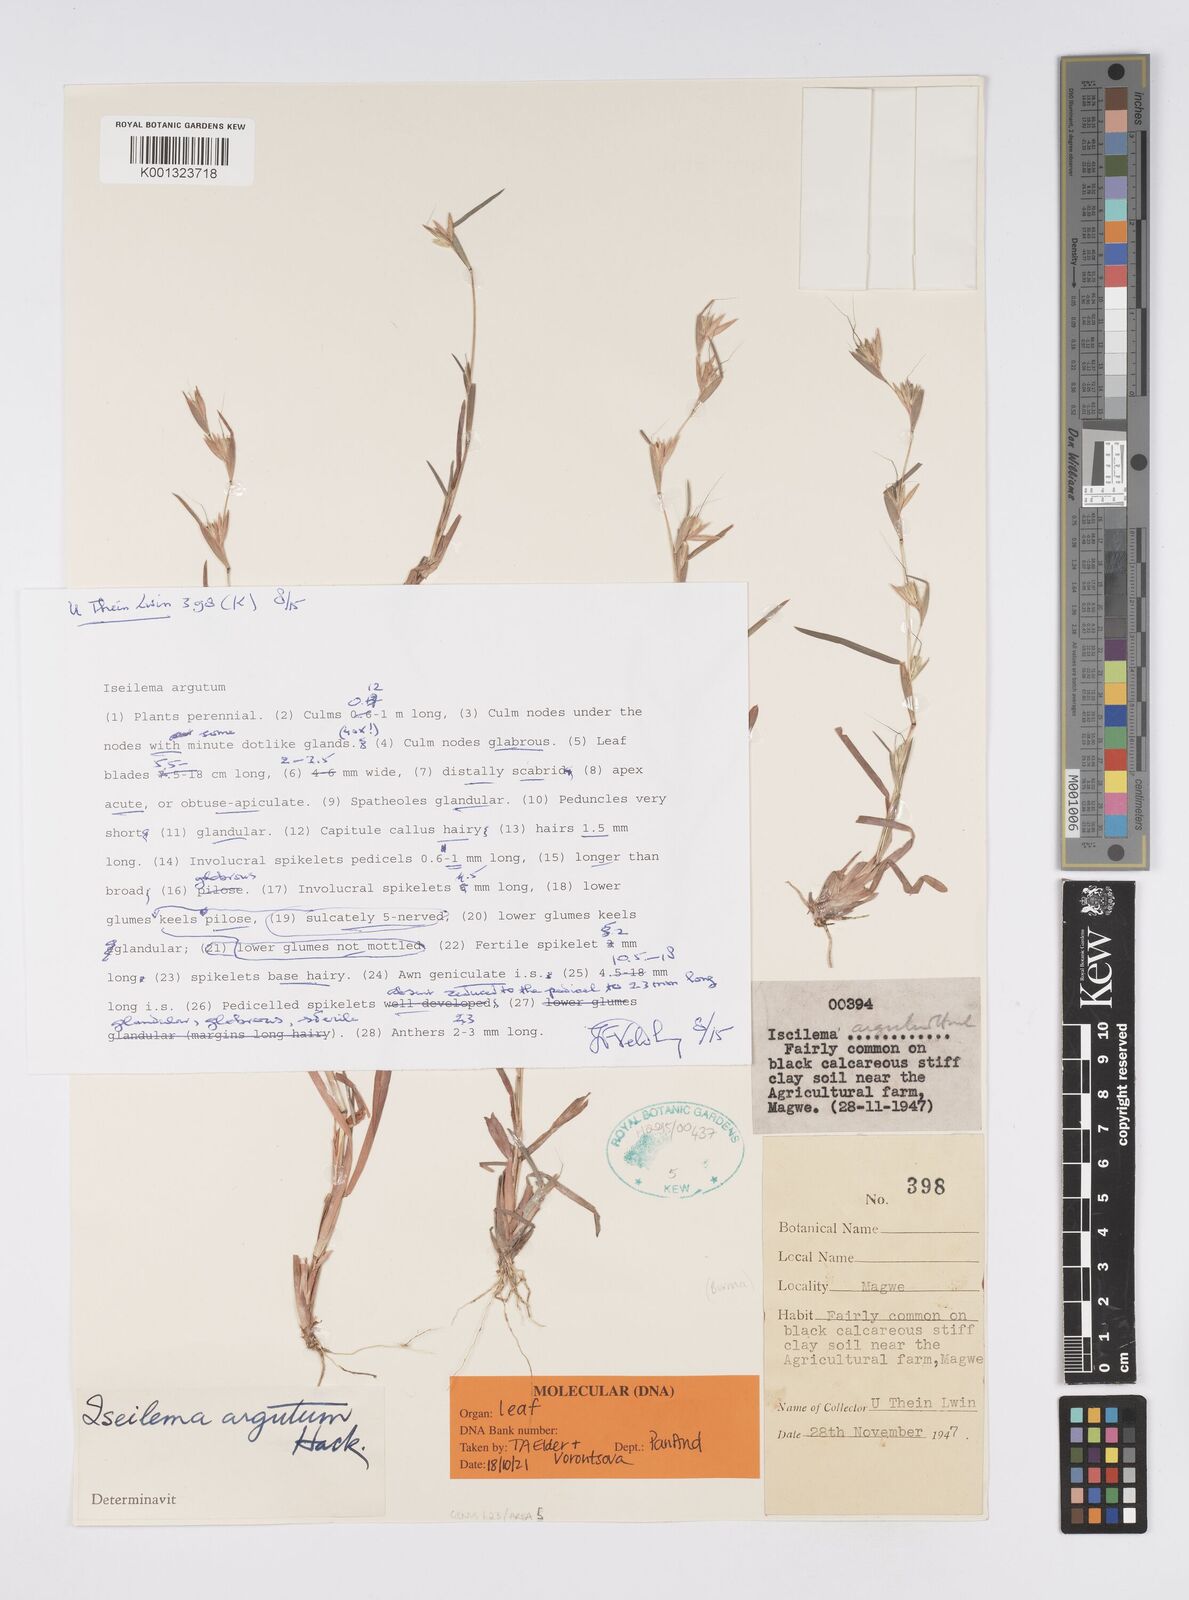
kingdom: Plantae
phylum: Tracheophyta
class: Liliopsida
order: Poales
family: Poaceae
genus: Iseilema
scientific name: Iseilema argutum
